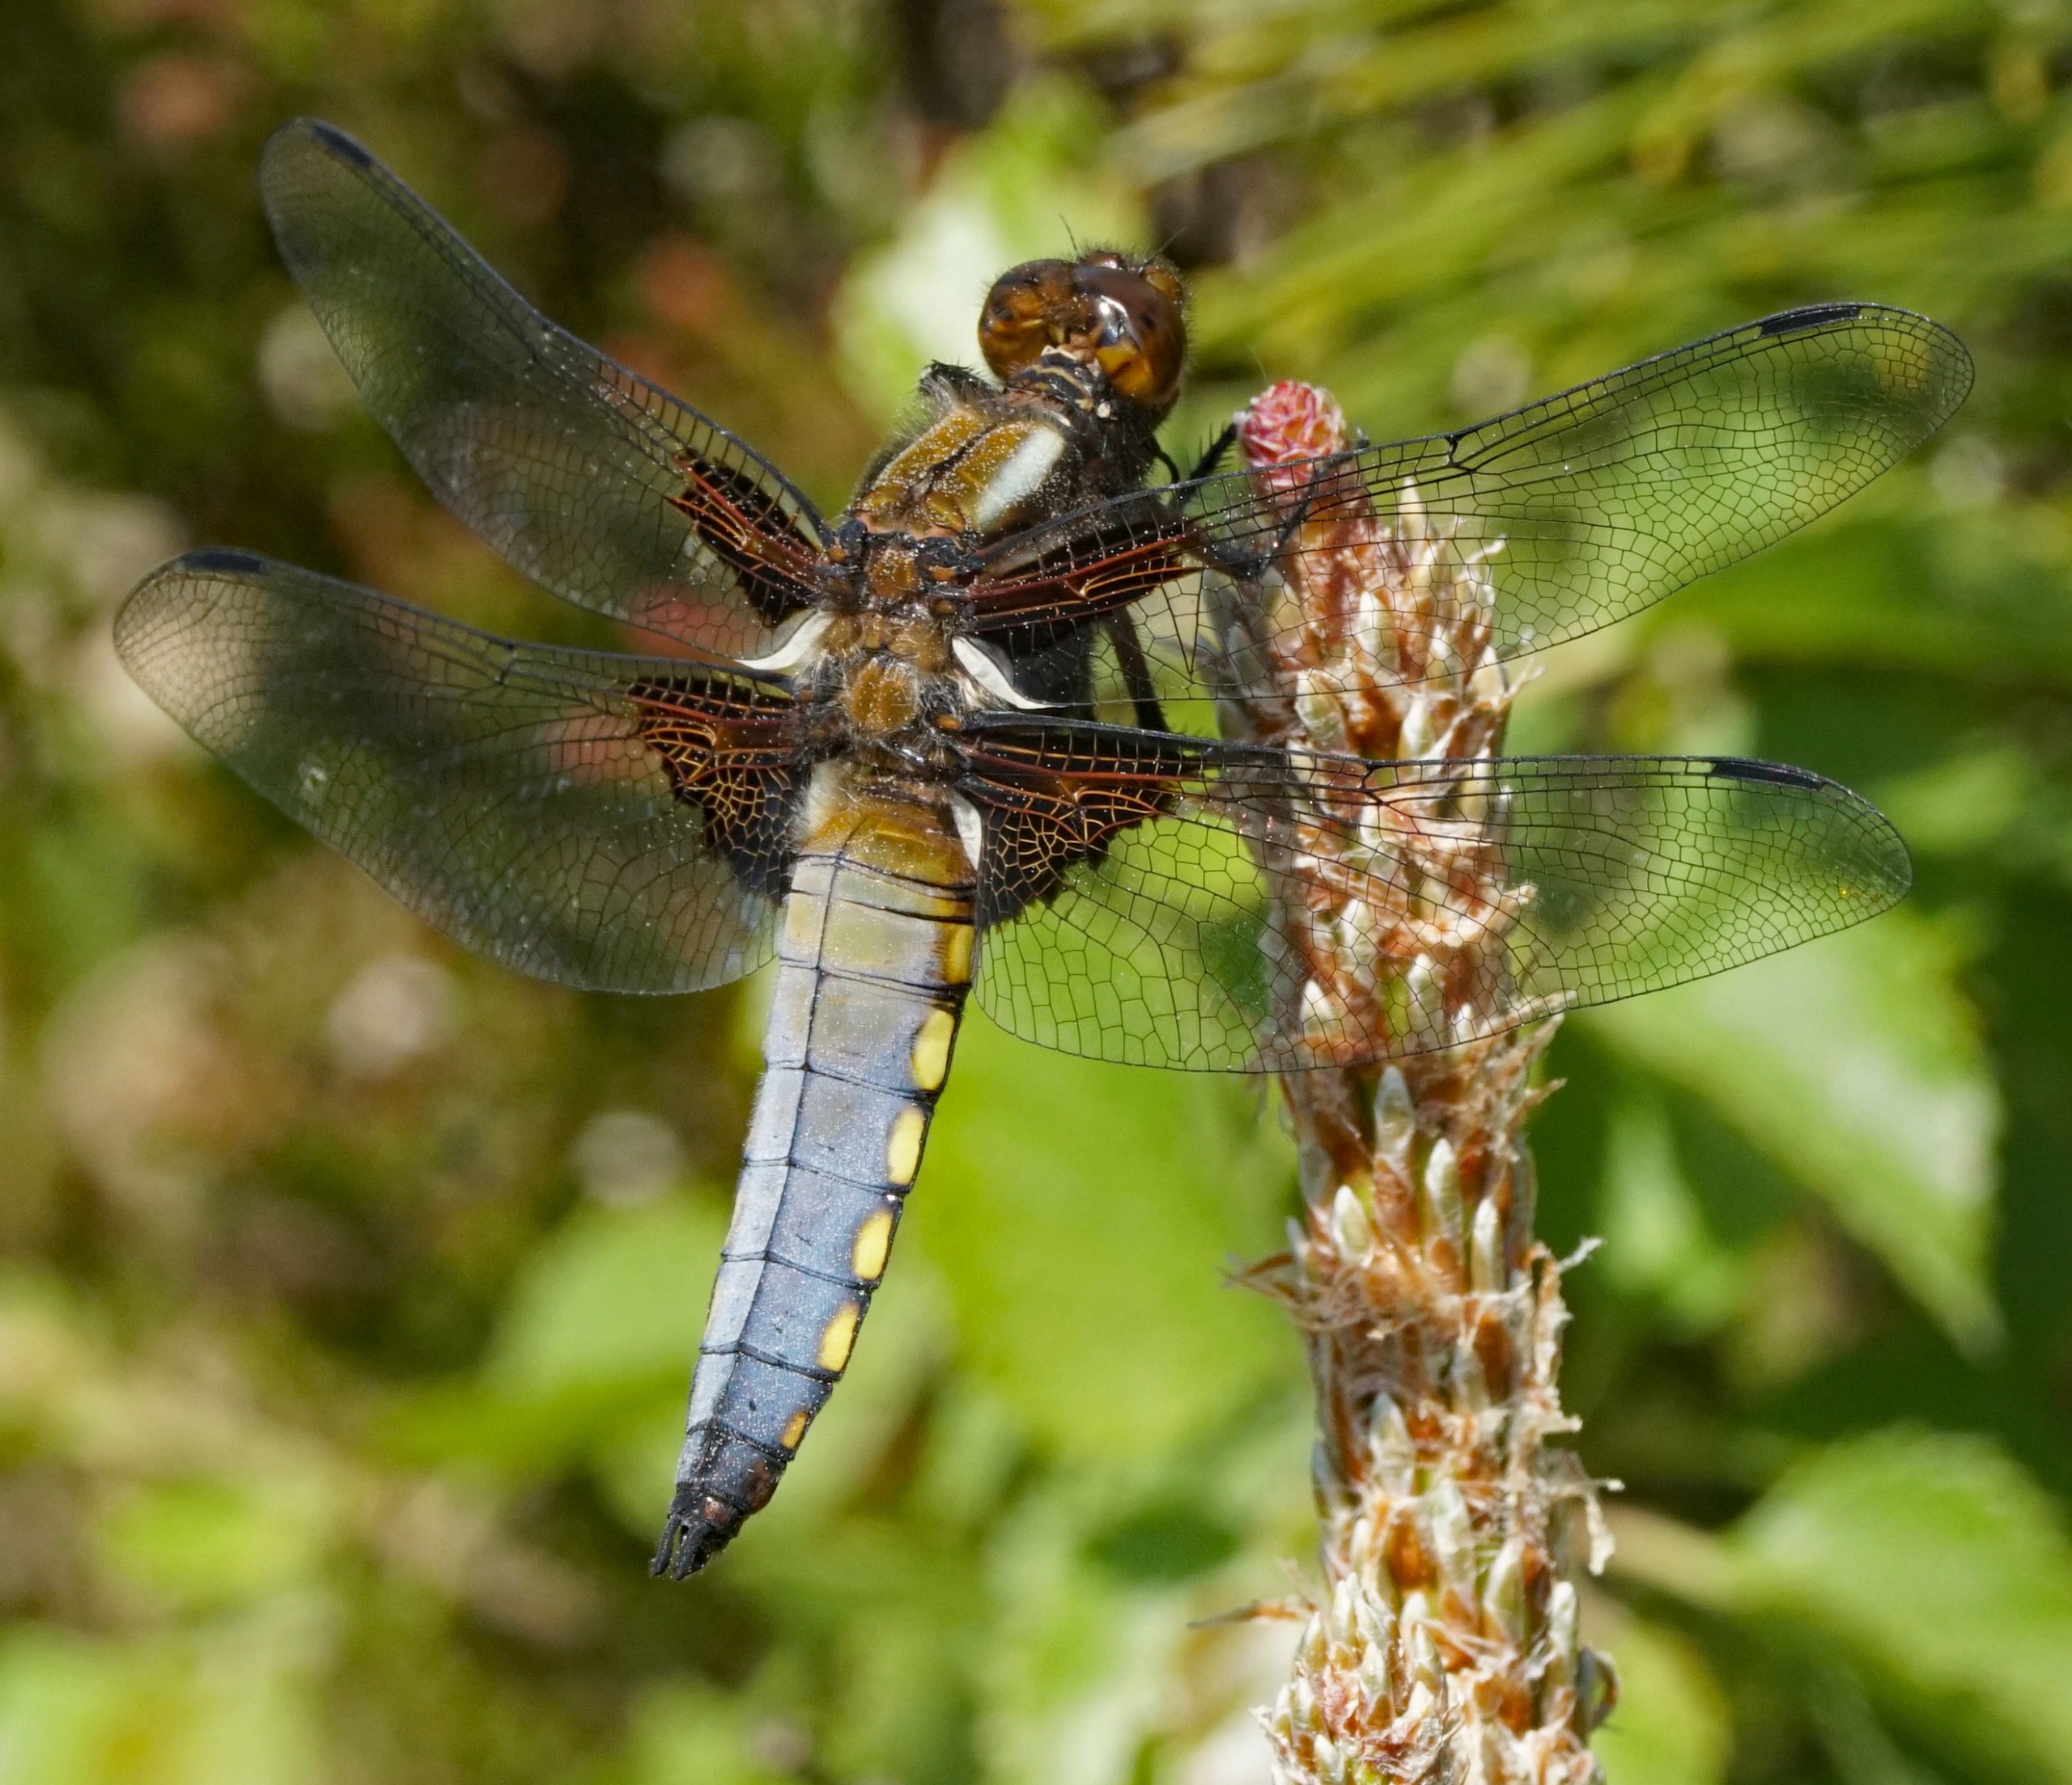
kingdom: Animalia
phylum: Arthropoda
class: Insecta
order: Odonata
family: Libellulidae
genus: Libellula
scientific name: Libellula depressa
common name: Blå libel
